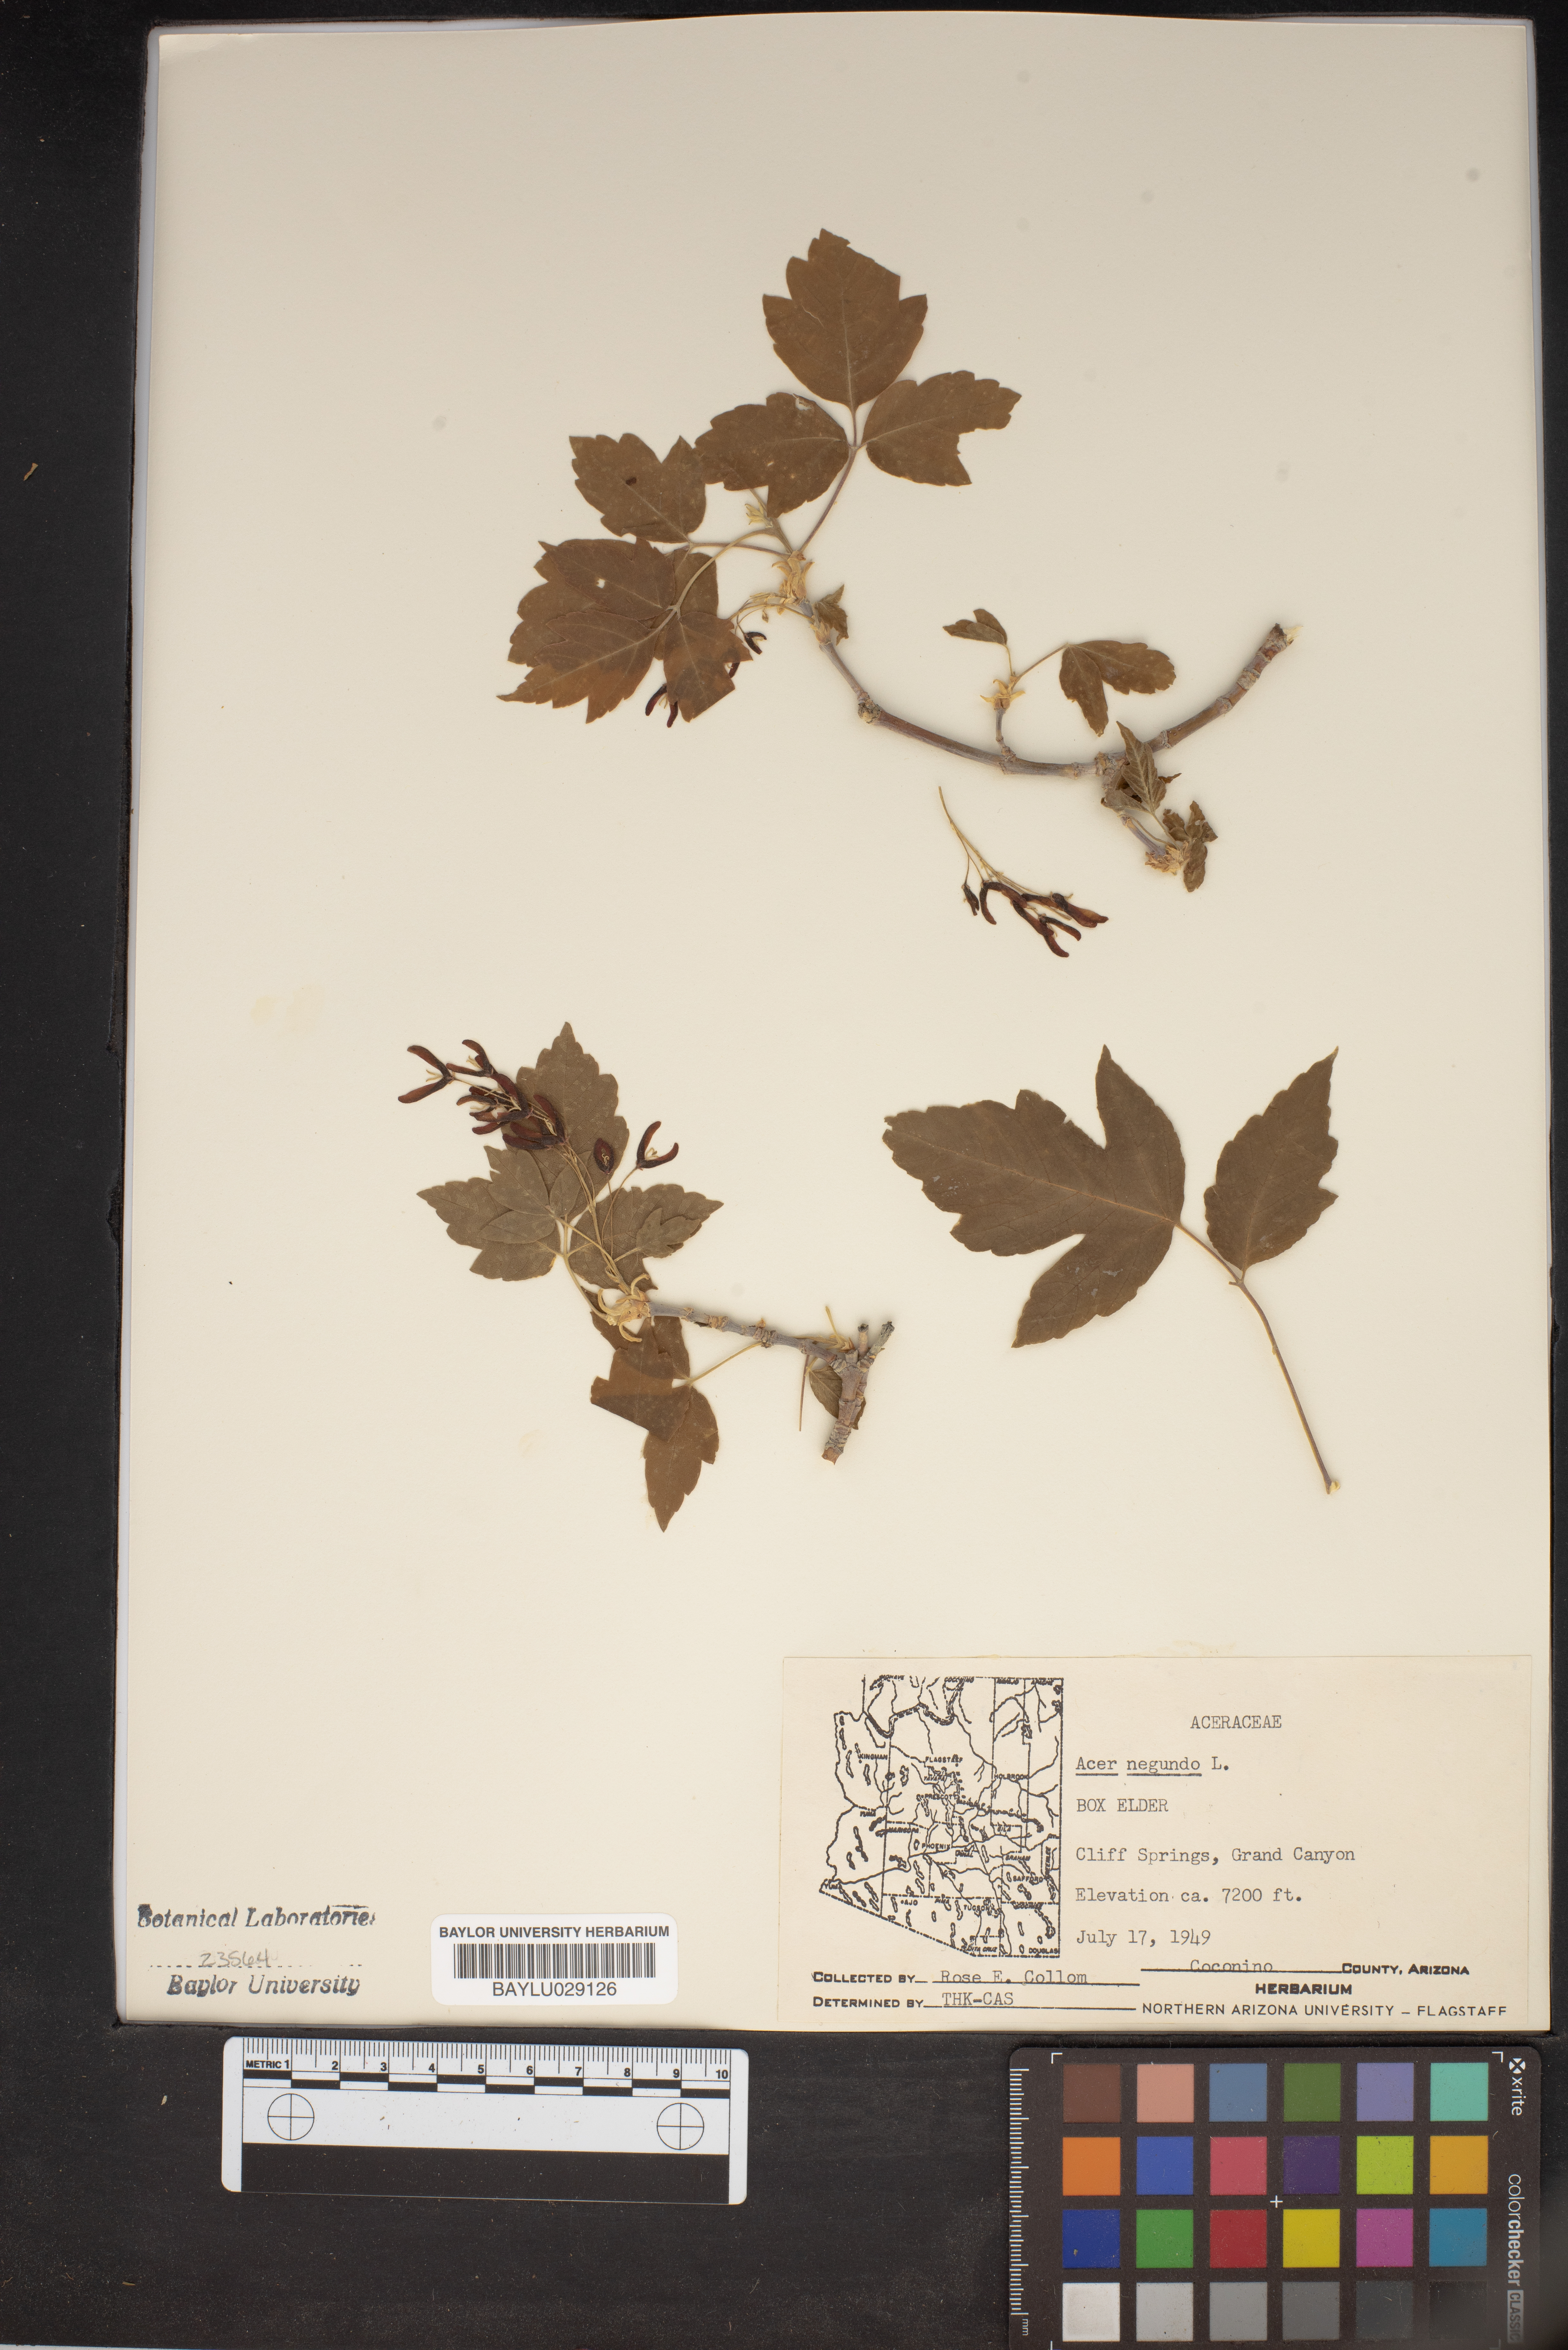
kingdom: Plantae
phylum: Tracheophyta
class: Magnoliopsida
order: Sapindales
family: Sapindaceae
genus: Acer
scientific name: Acer negundo
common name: Ashleaf maple
